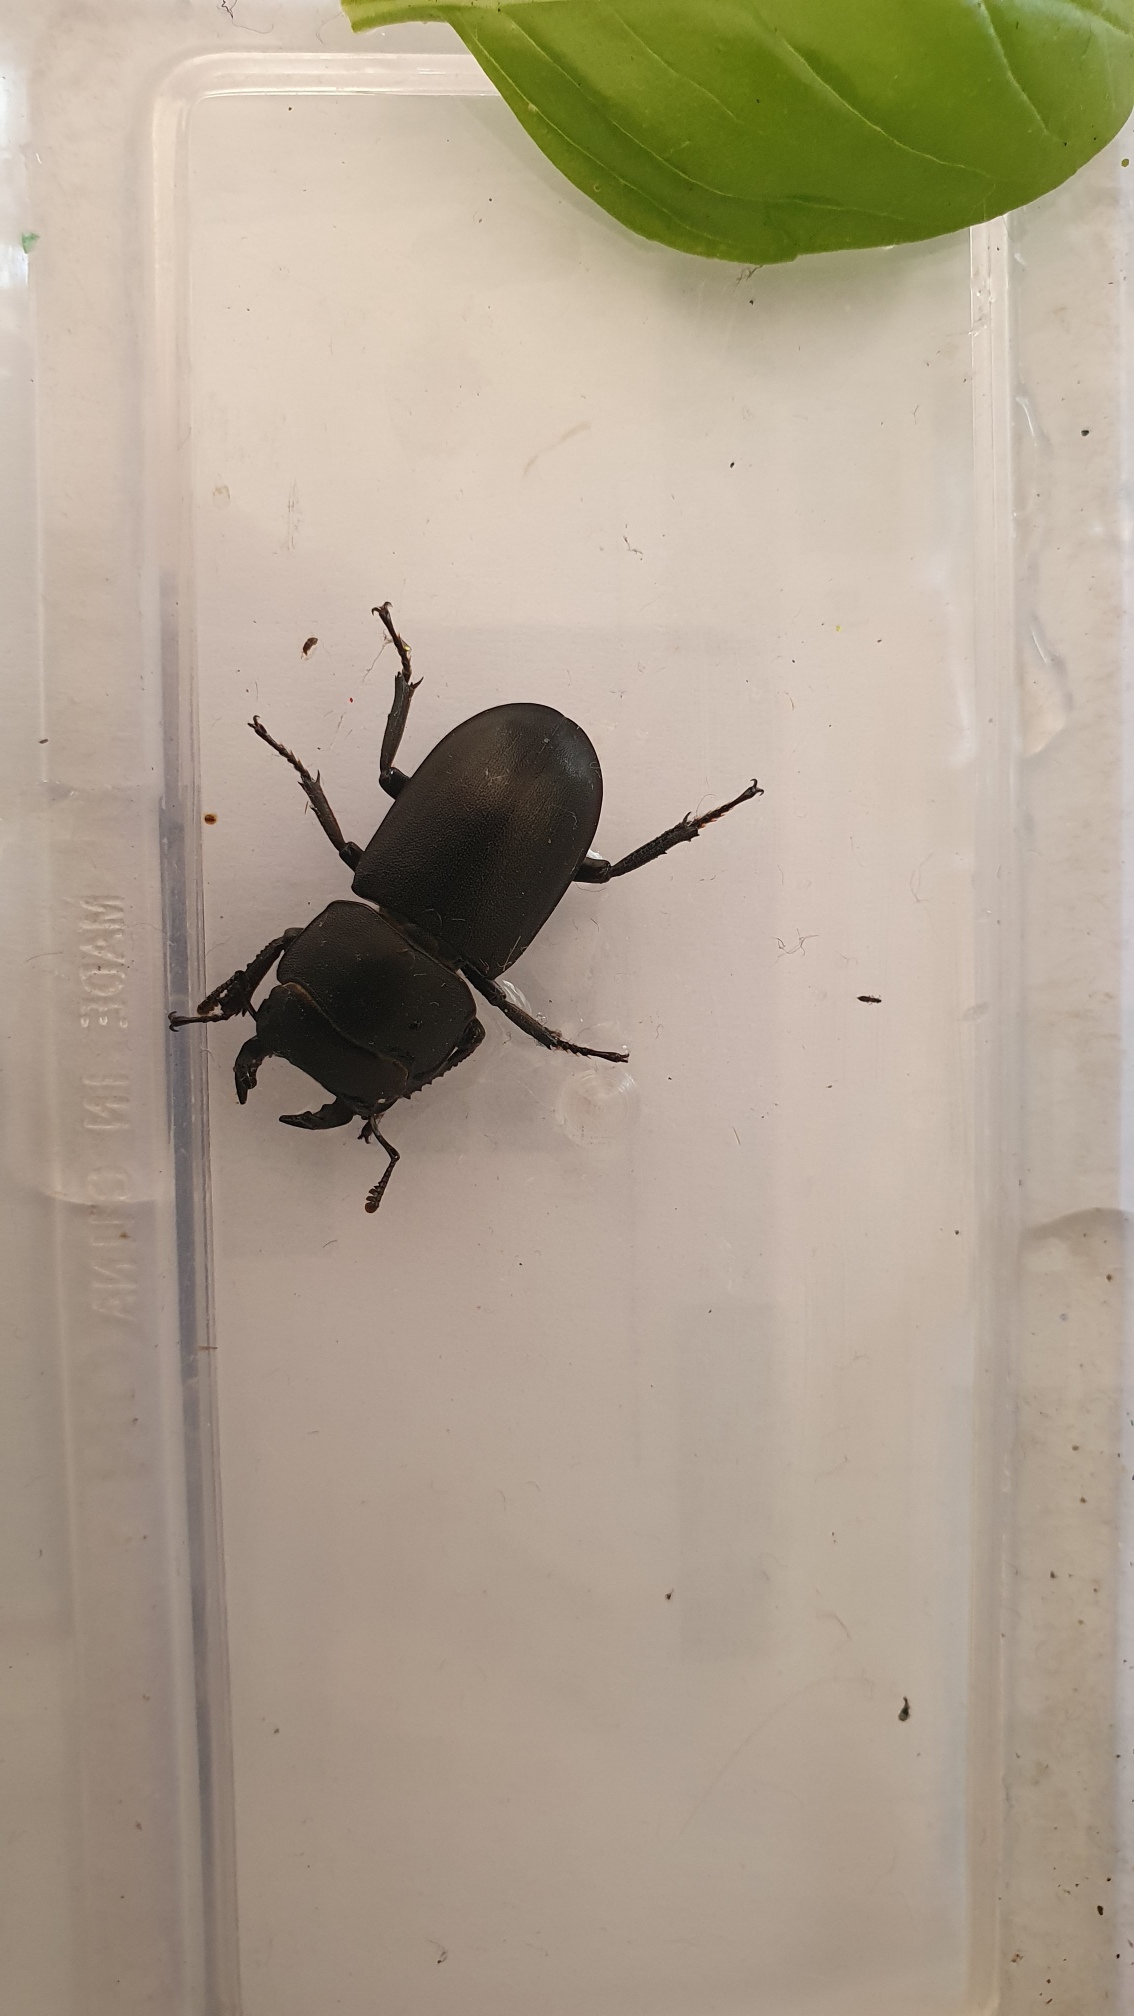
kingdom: Animalia
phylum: Arthropoda
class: Insecta
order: Coleoptera
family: Lucanidae
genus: Dorcus
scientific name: Dorcus parallelipipedus
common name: Bøghjort
